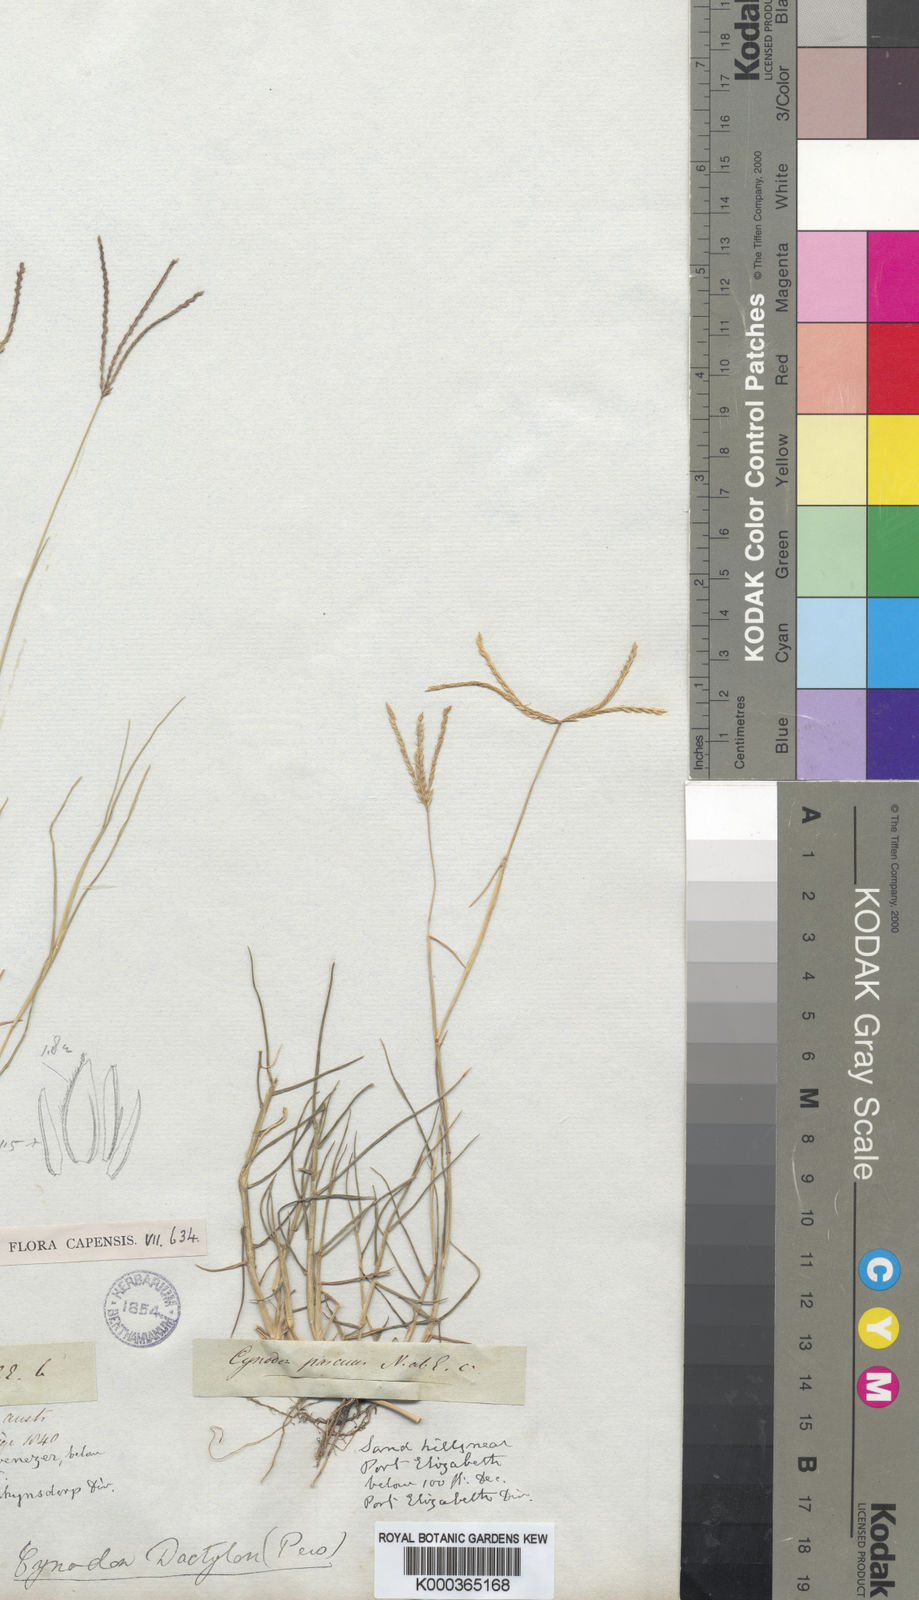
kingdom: Plantae
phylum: Tracheophyta
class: Liliopsida
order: Poales
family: Poaceae
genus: Cynodon
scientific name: Cynodon dactylon
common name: Bermuda grass
